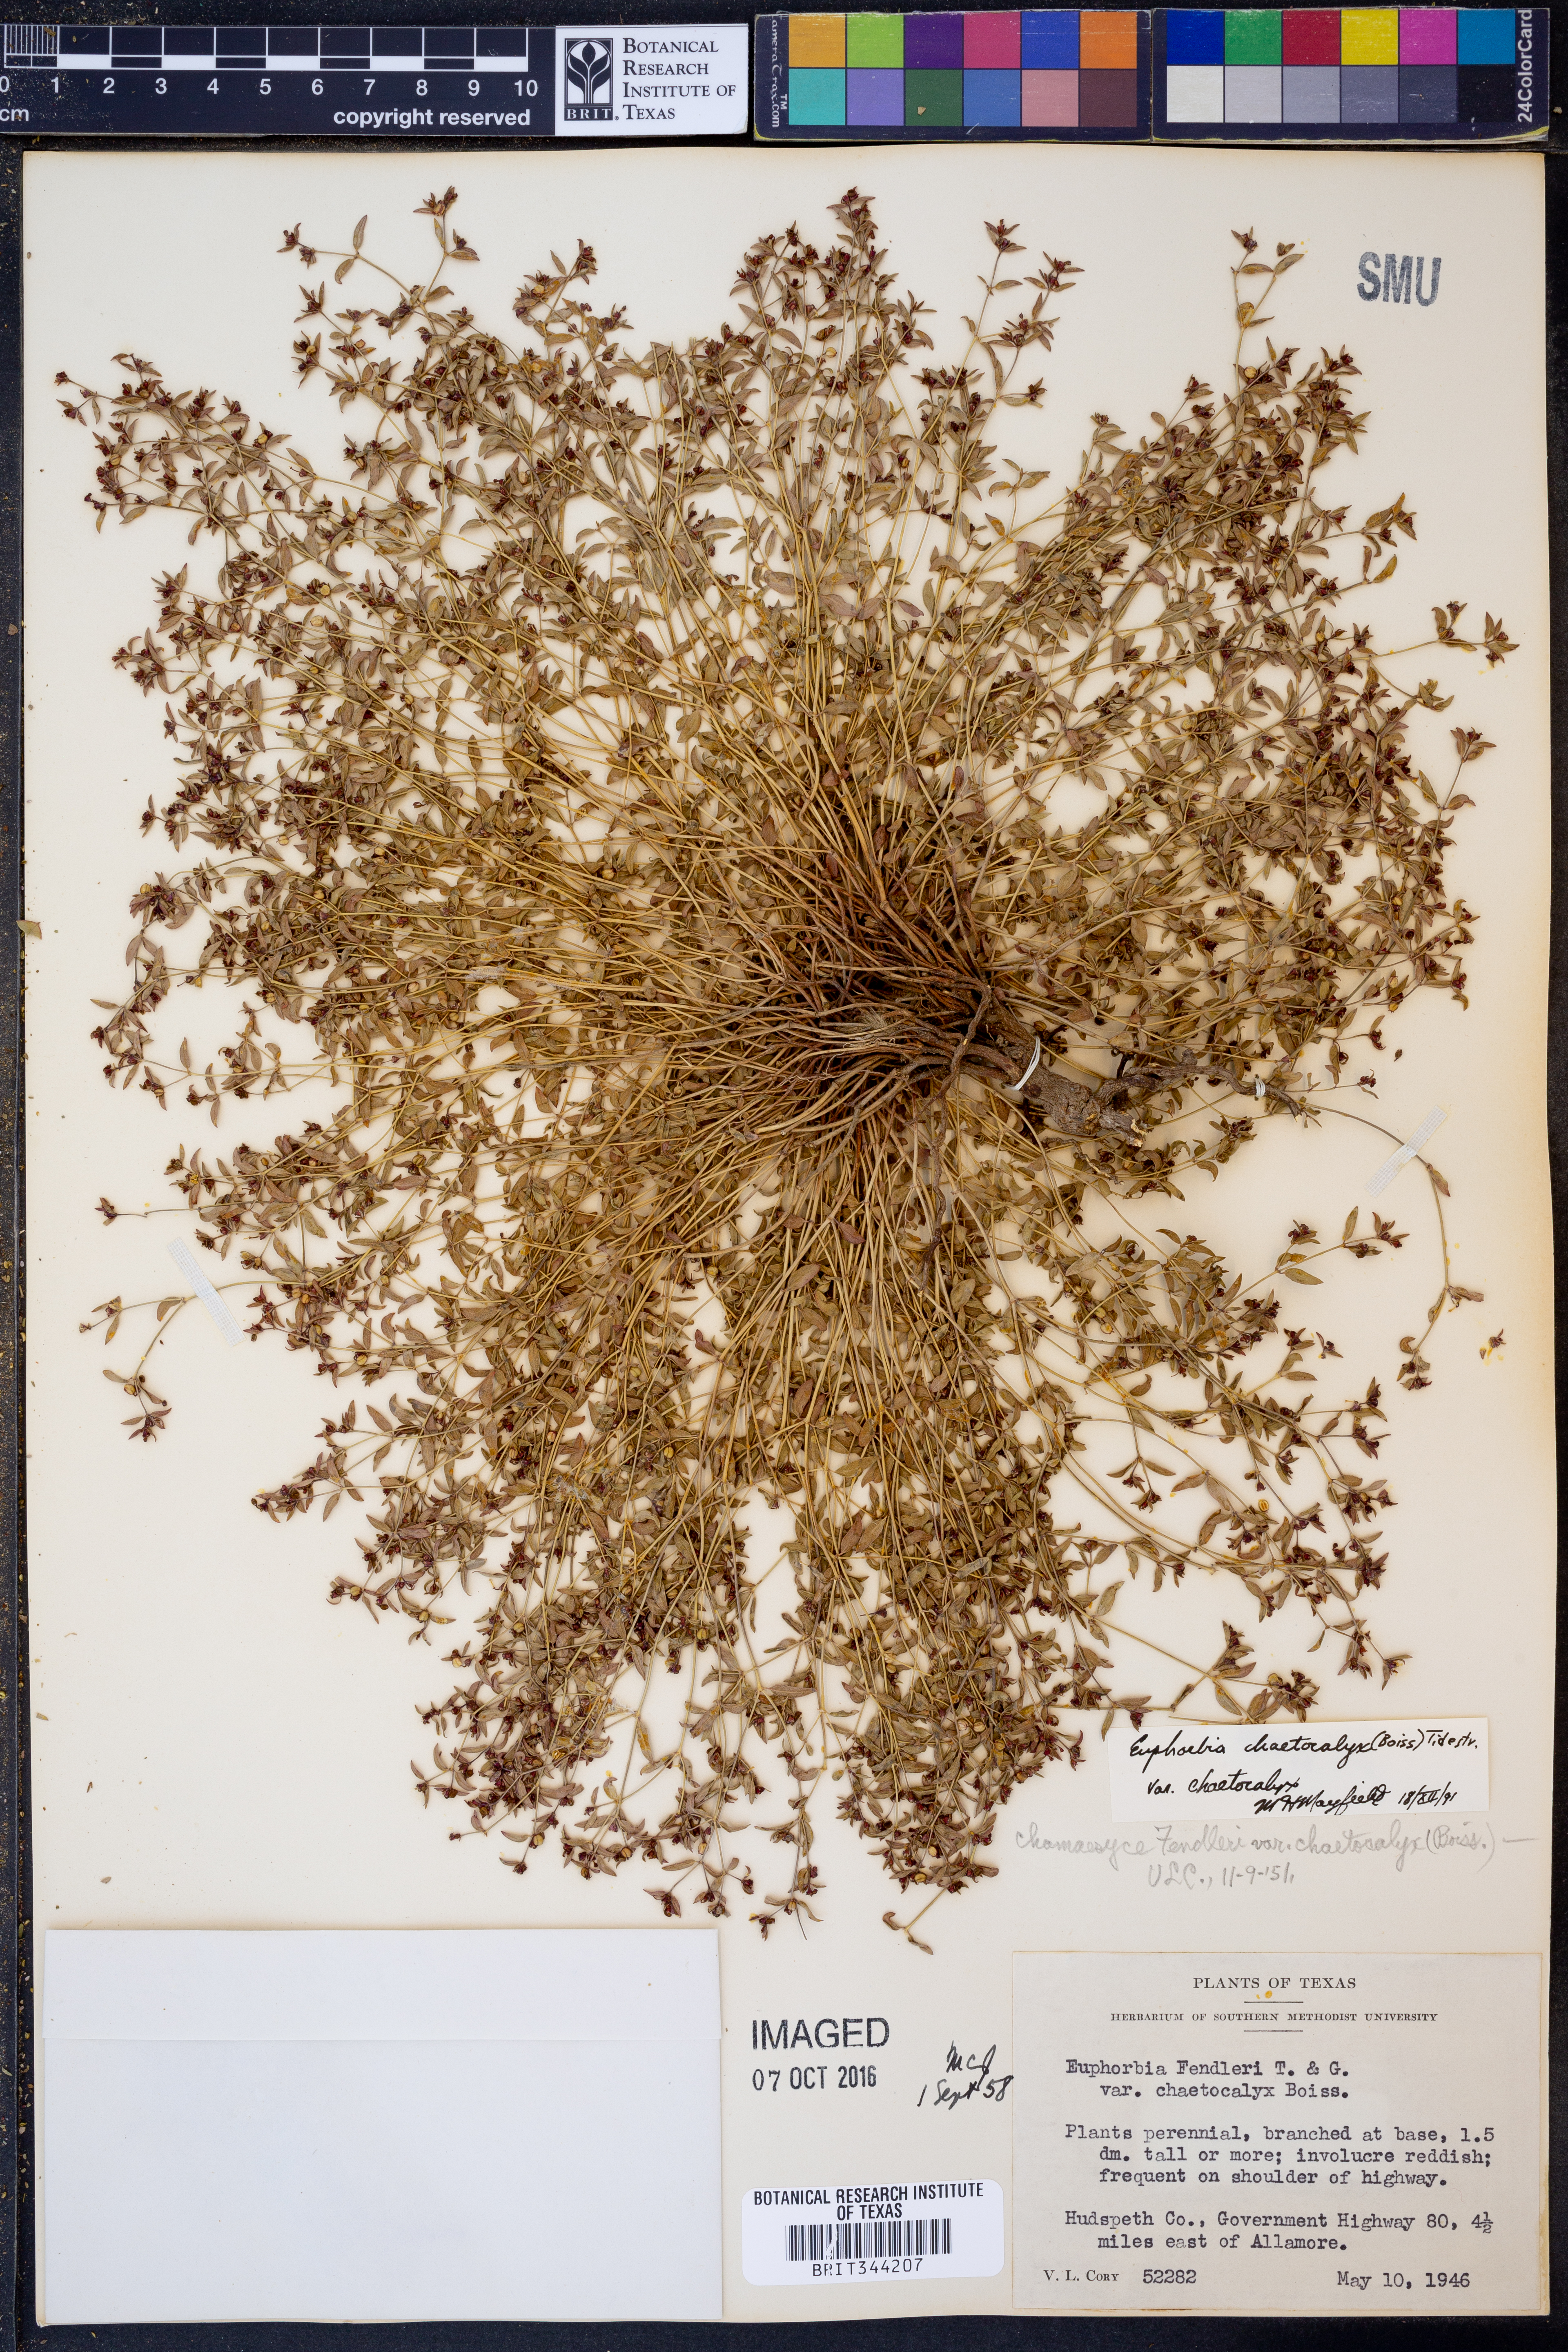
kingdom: Plantae
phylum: Tracheophyta
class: Magnoliopsida
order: Malpighiales
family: Euphorbiaceae
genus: Euphorbia
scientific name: Euphorbia chaetocalyx
